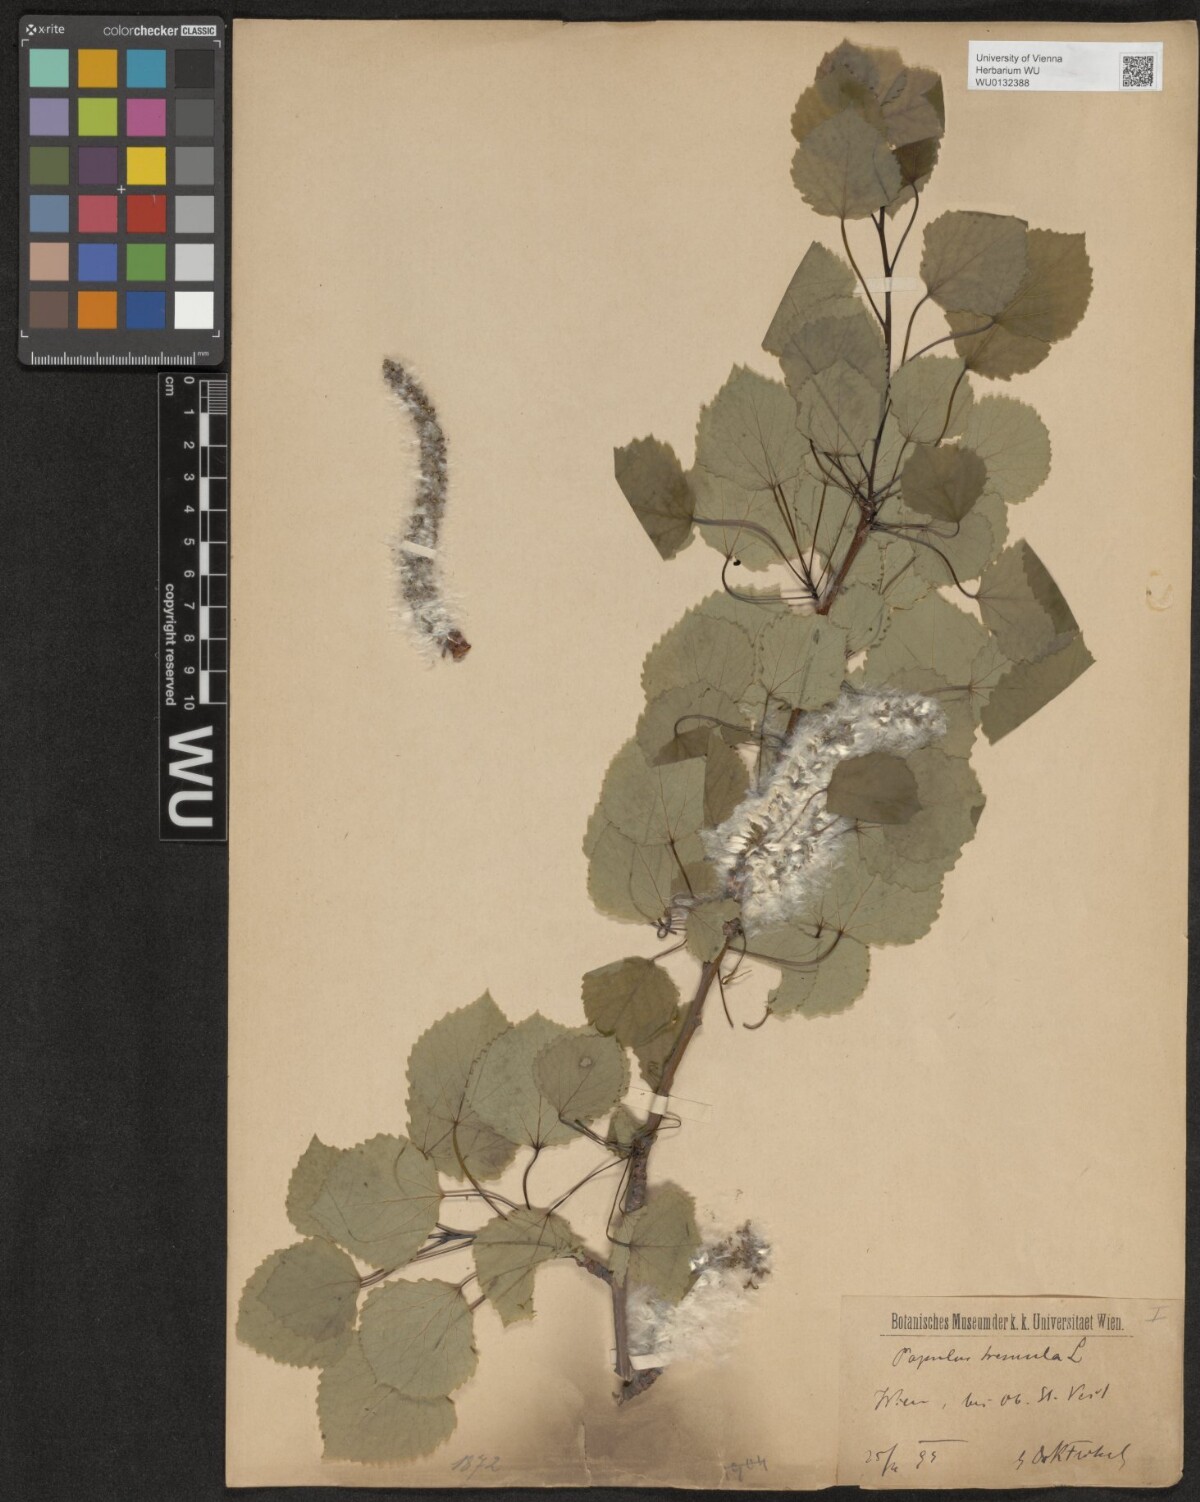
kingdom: Plantae
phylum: Tracheophyta
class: Magnoliopsida
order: Malpighiales
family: Salicaceae
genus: Populus
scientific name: Populus tremula
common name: European aspen
